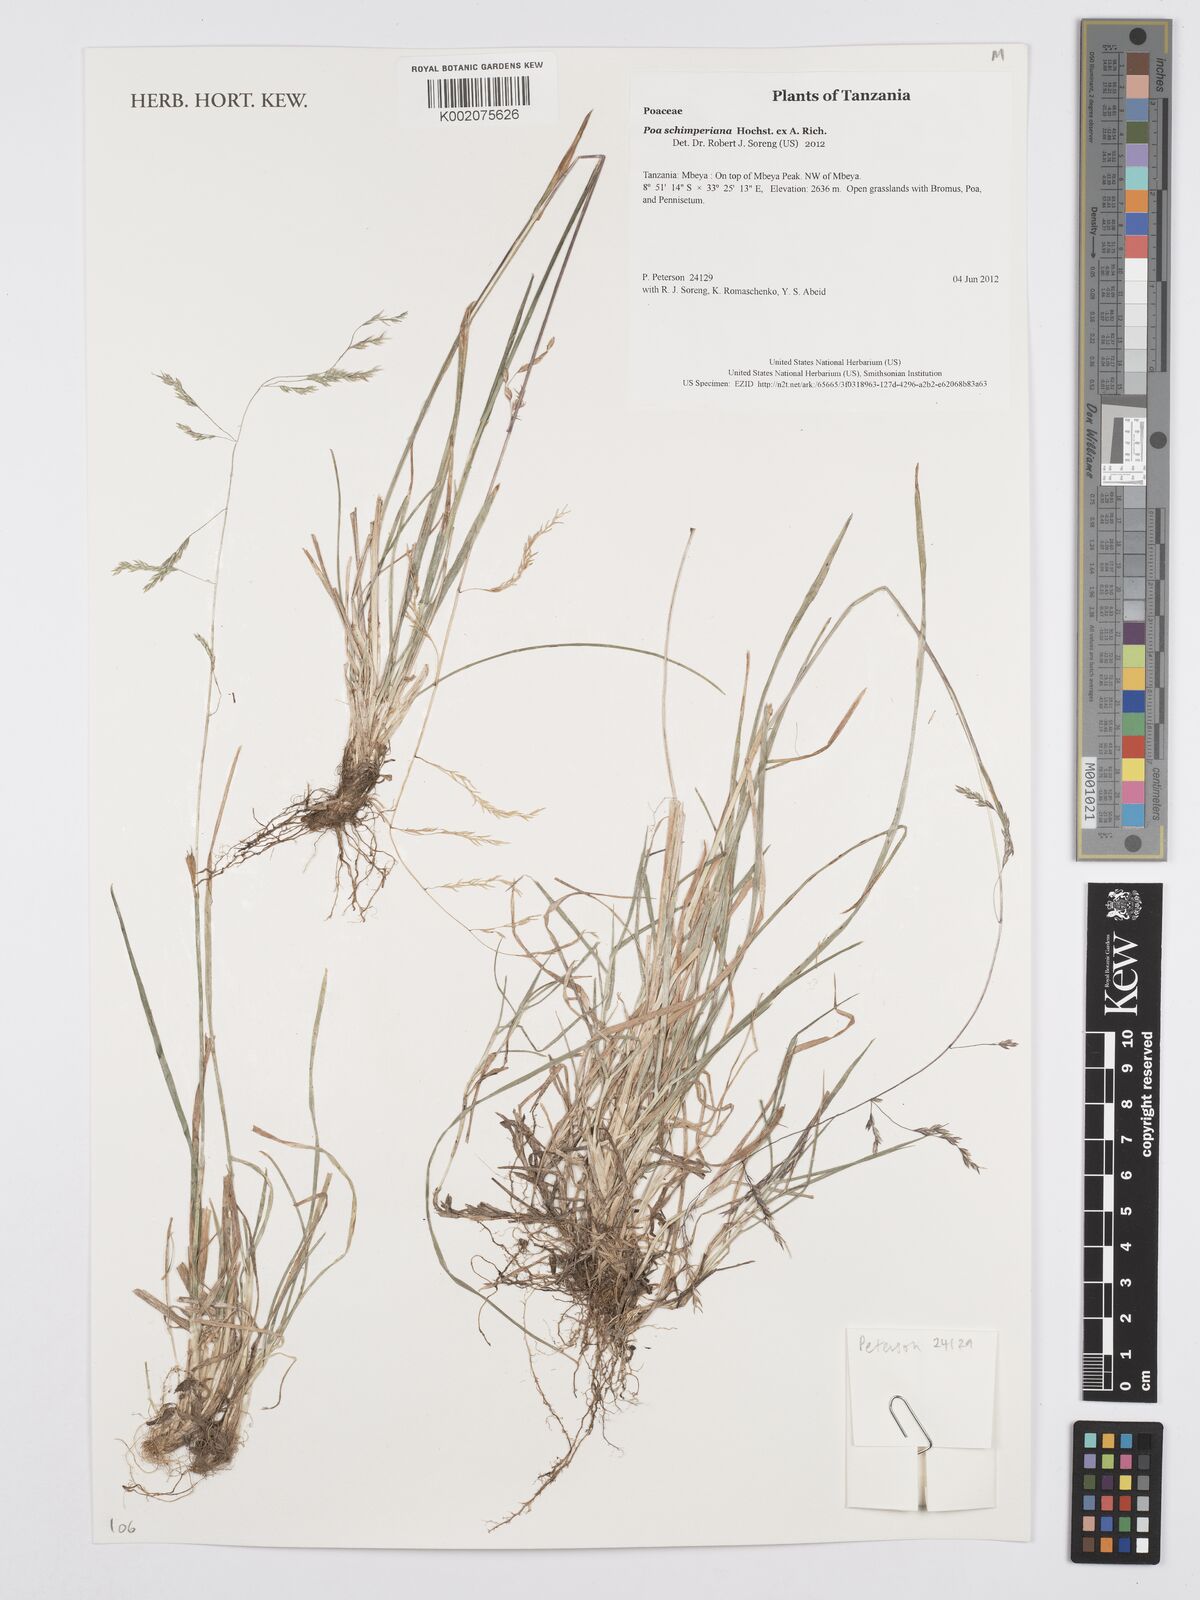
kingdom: Plantae
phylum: Tracheophyta
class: Liliopsida
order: Poales
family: Poaceae
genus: Poa
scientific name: Poa schimperiana
